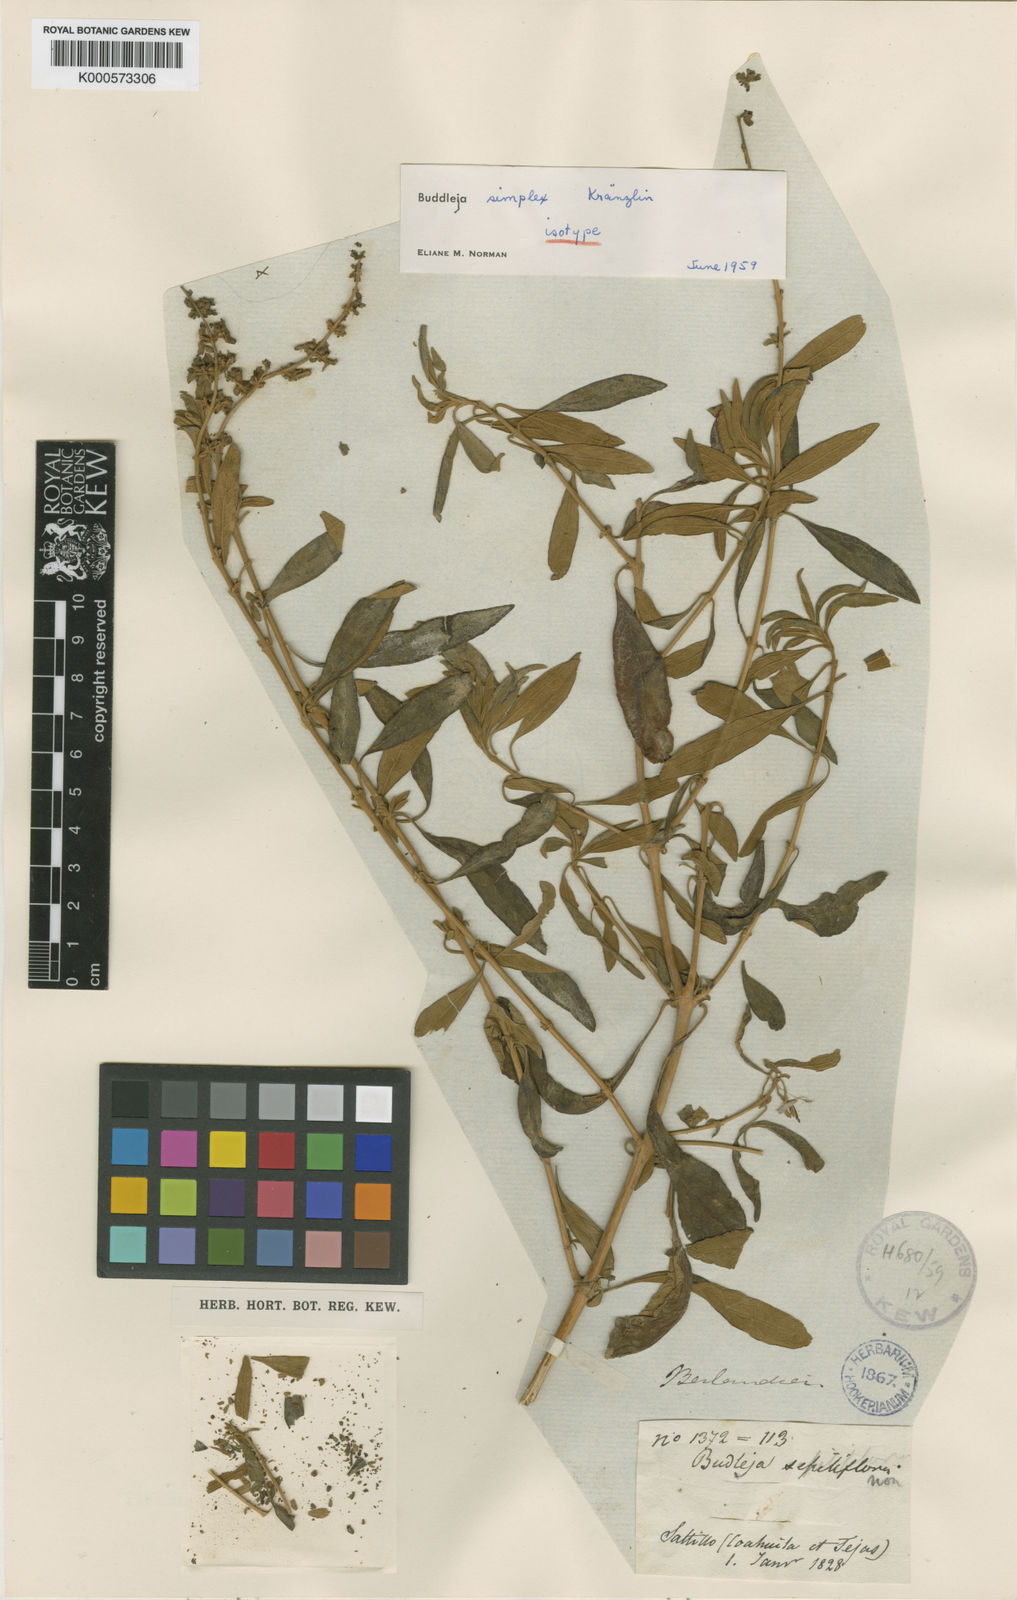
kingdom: Plantae
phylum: Tracheophyta
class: Magnoliopsida
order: Lamiales
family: Scrophulariaceae
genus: Buddleja
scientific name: Buddleja marrubiifolia
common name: Woolly butterfly-bush
